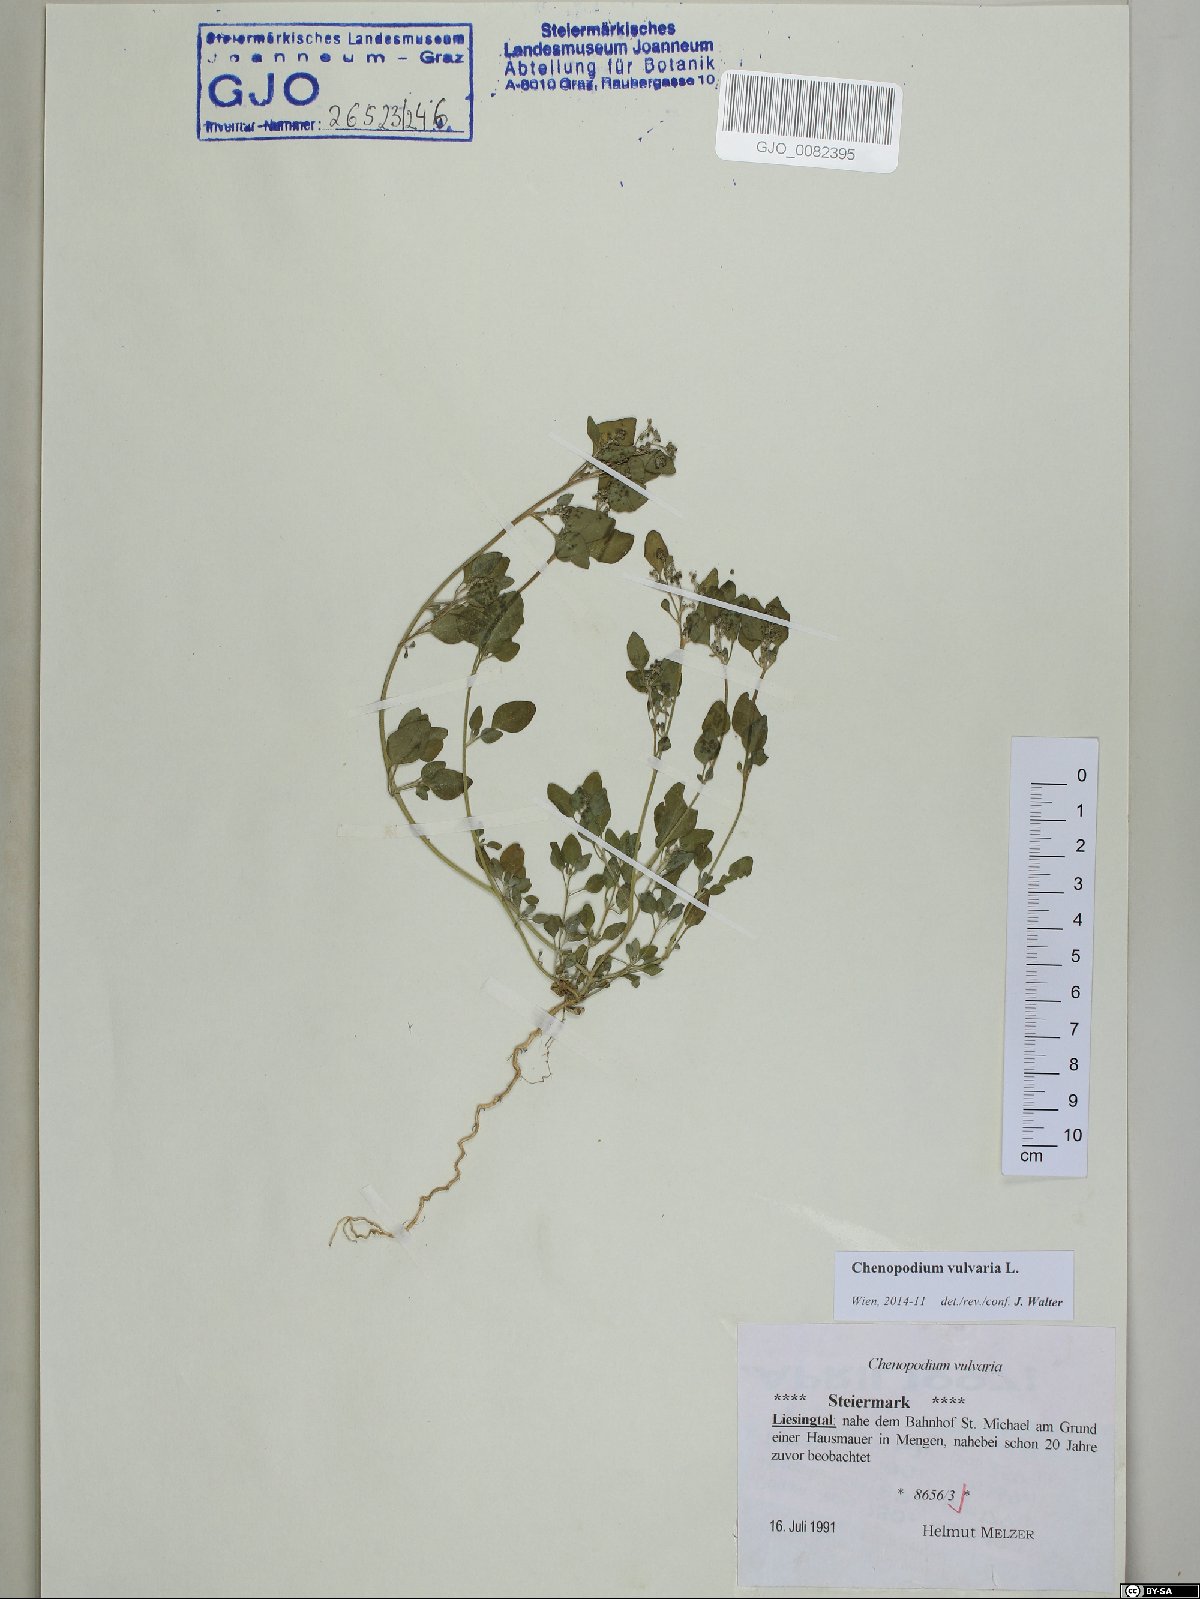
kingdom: Plantae
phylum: Tracheophyta
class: Magnoliopsida
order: Caryophyllales
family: Amaranthaceae
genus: Chenopodium
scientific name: Chenopodium vulvaria
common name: Stinking goosefoot
